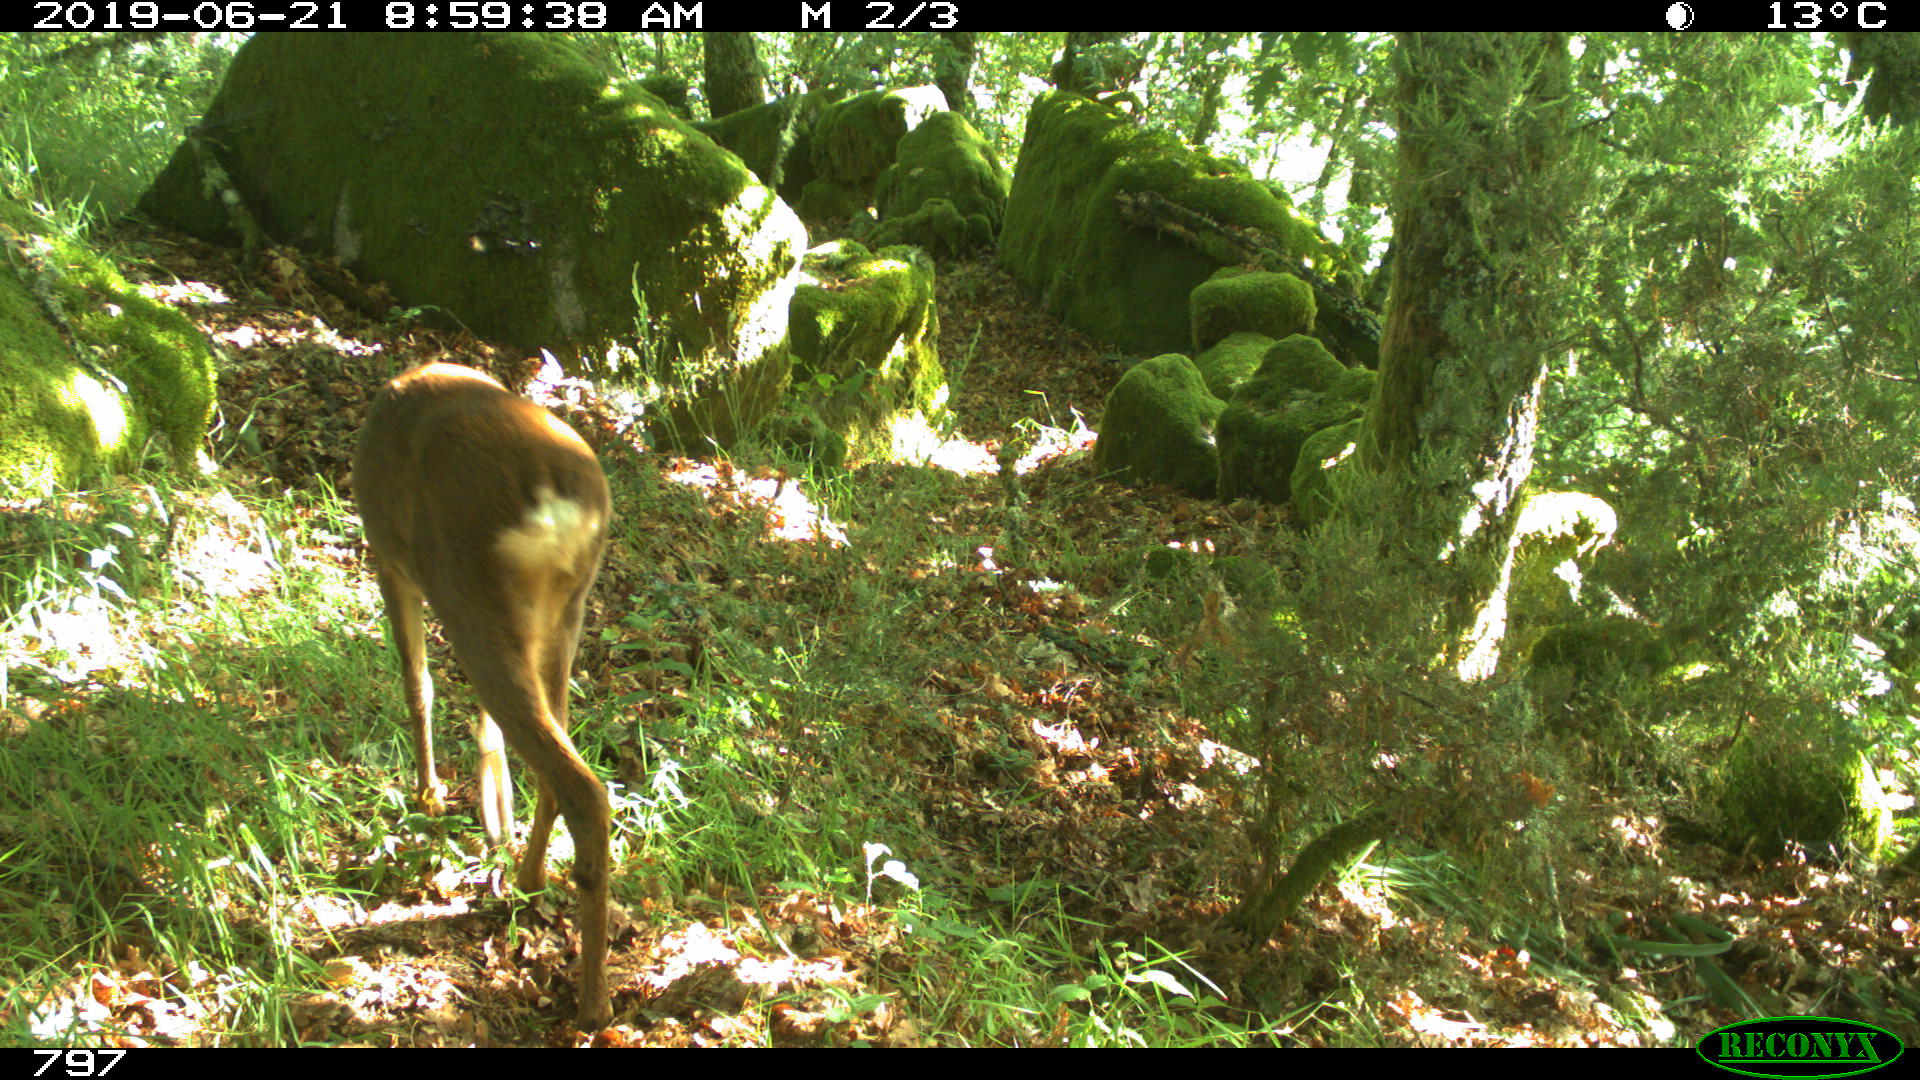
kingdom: Animalia
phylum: Chordata
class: Mammalia
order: Artiodactyla
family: Cervidae
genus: Capreolus
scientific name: Capreolus capreolus
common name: Western roe deer
